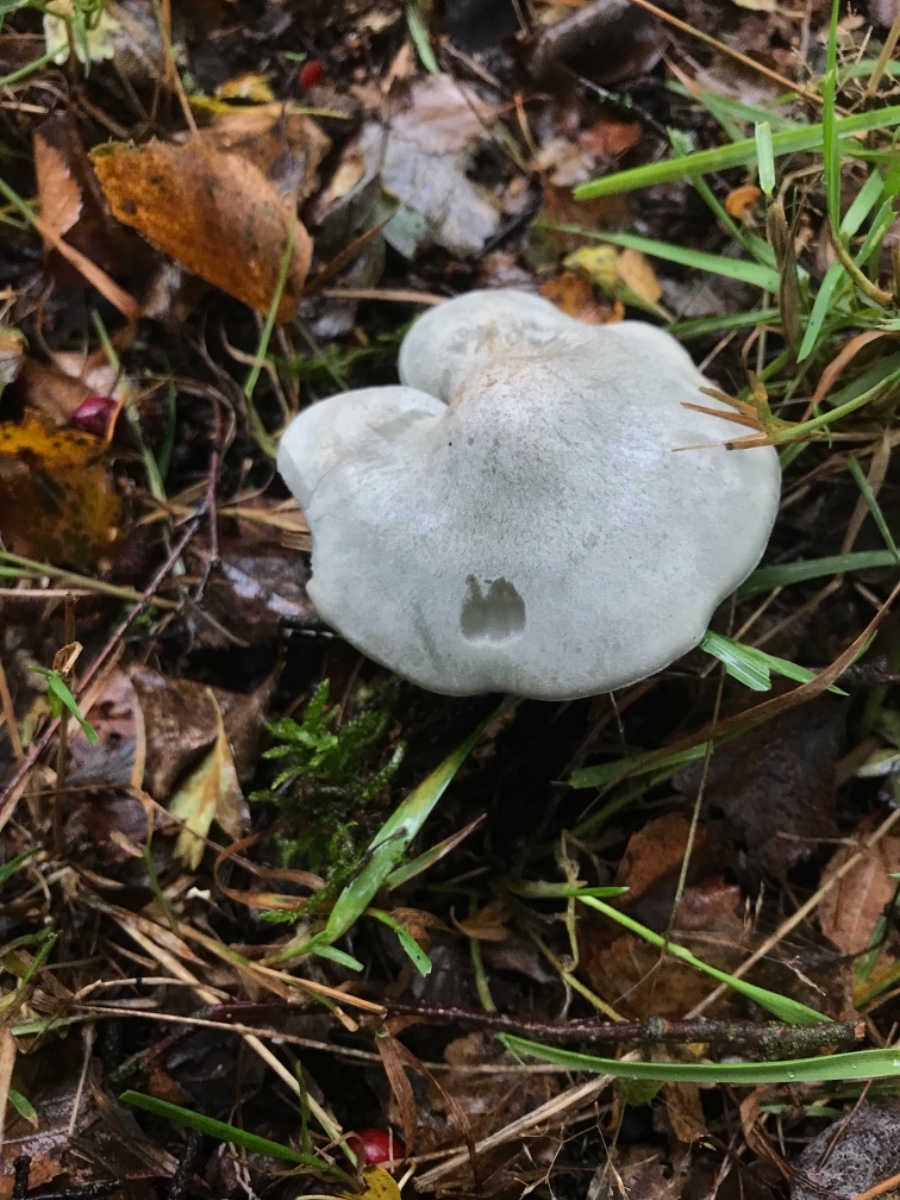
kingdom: Fungi
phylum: Basidiomycota
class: Agaricomycetes
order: Agaricales
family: Tricholomataceae
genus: Clitocybe
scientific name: Clitocybe odora
